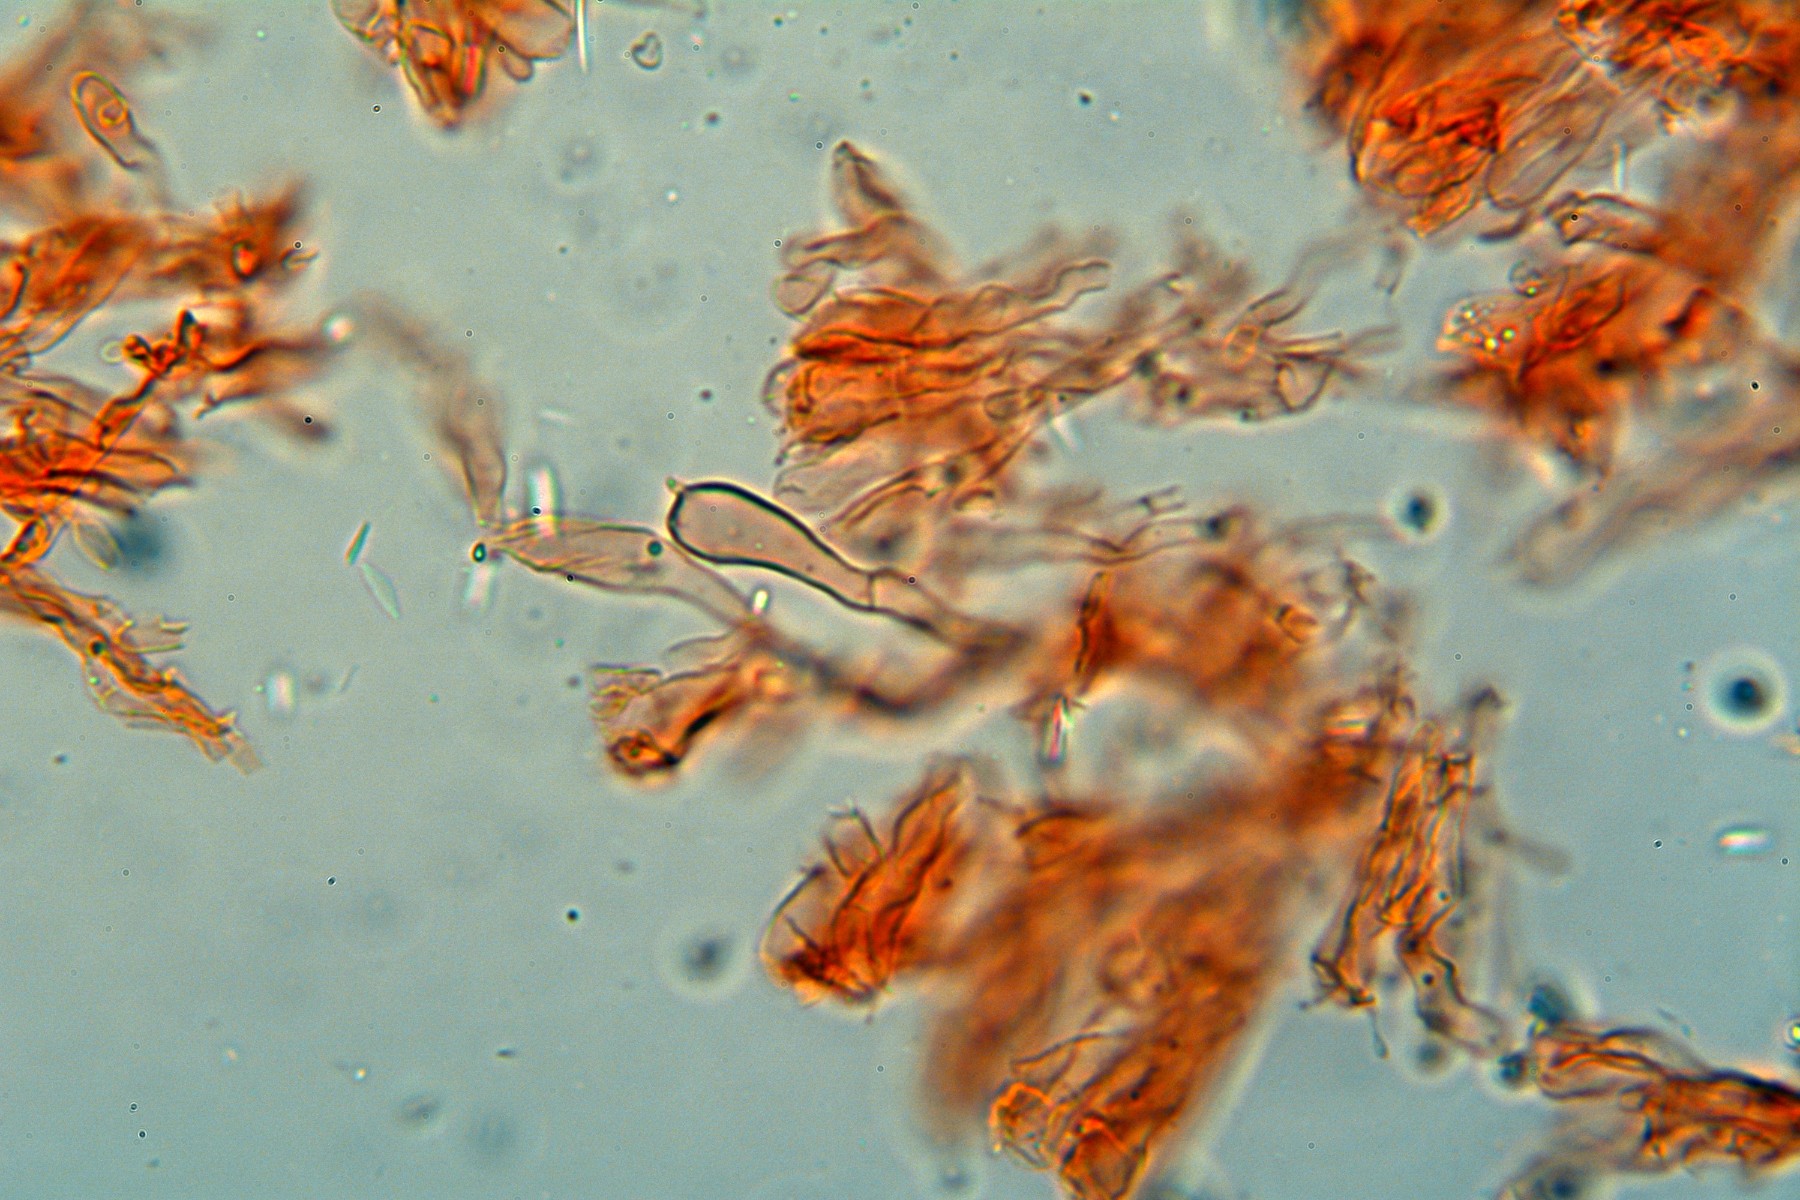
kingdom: Fungi
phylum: Basidiomycota
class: Agaricomycetes
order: Agaricales
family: Clavariaceae
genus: Clavaria
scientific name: Clavaria fragilis
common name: bugtet køllesvamp
